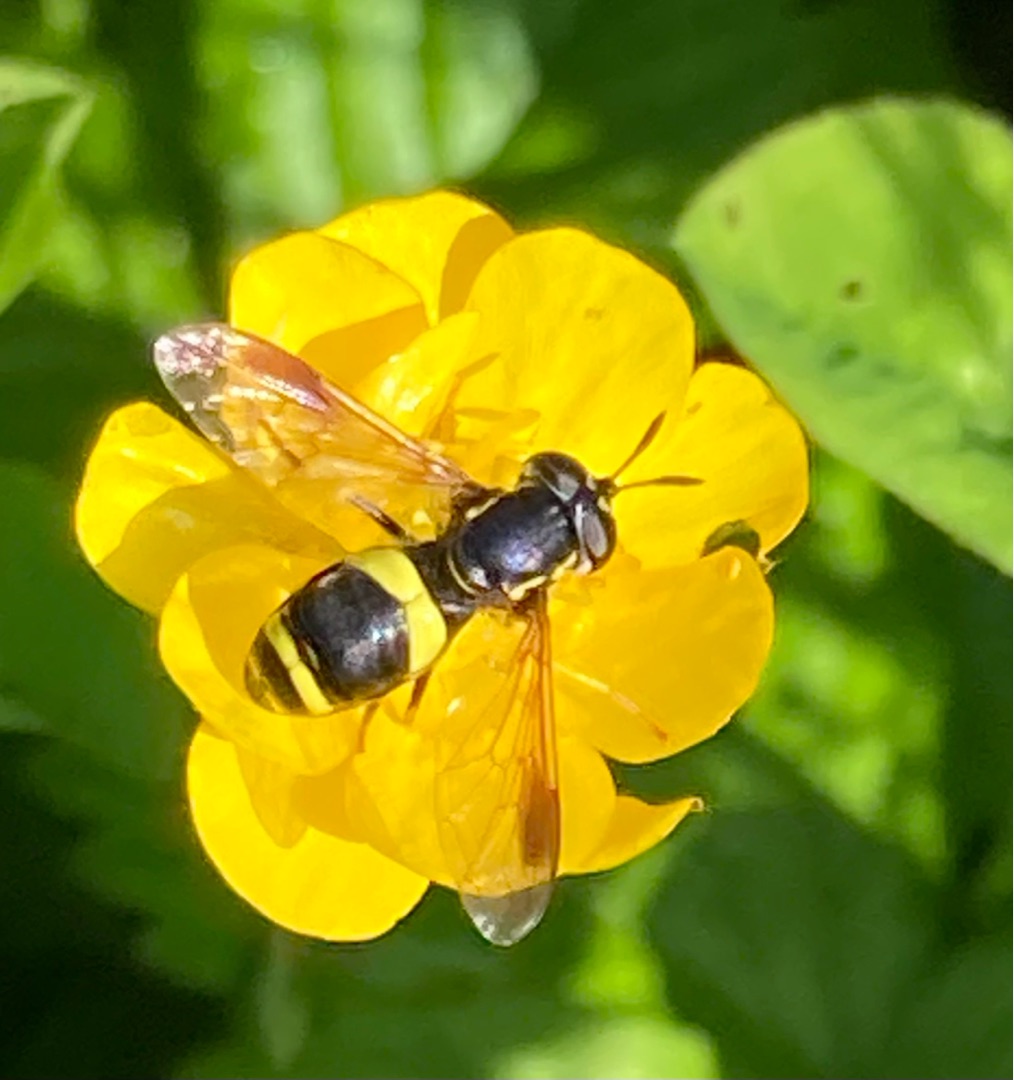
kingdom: Animalia
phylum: Arthropoda
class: Insecta
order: Diptera
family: Syrphidae
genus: Chrysotoxum
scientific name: Chrysotoxum bicincta
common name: Tobåndet hvepsesvirreflue
